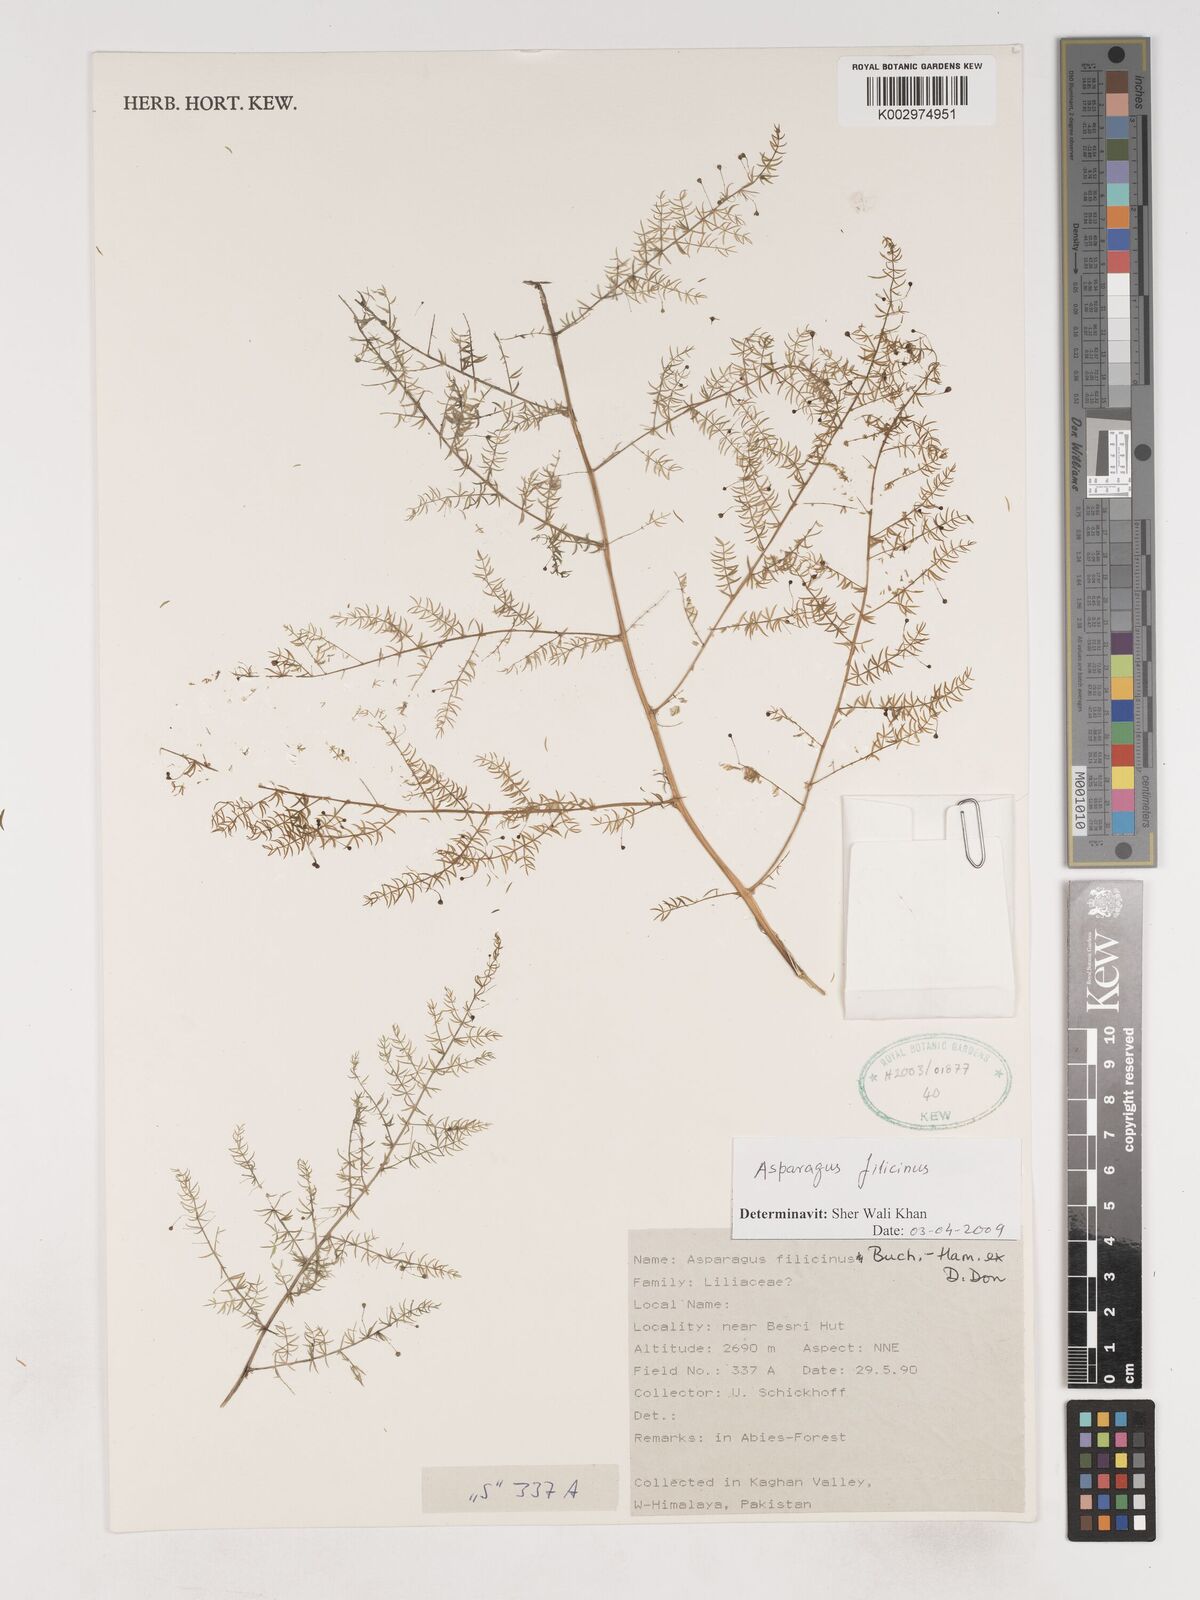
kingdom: Plantae
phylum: Tracheophyta
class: Liliopsida
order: Asparagales
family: Asparagaceae
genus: Asparagus
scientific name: Asparagus filicinus
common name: Fern asparagus
